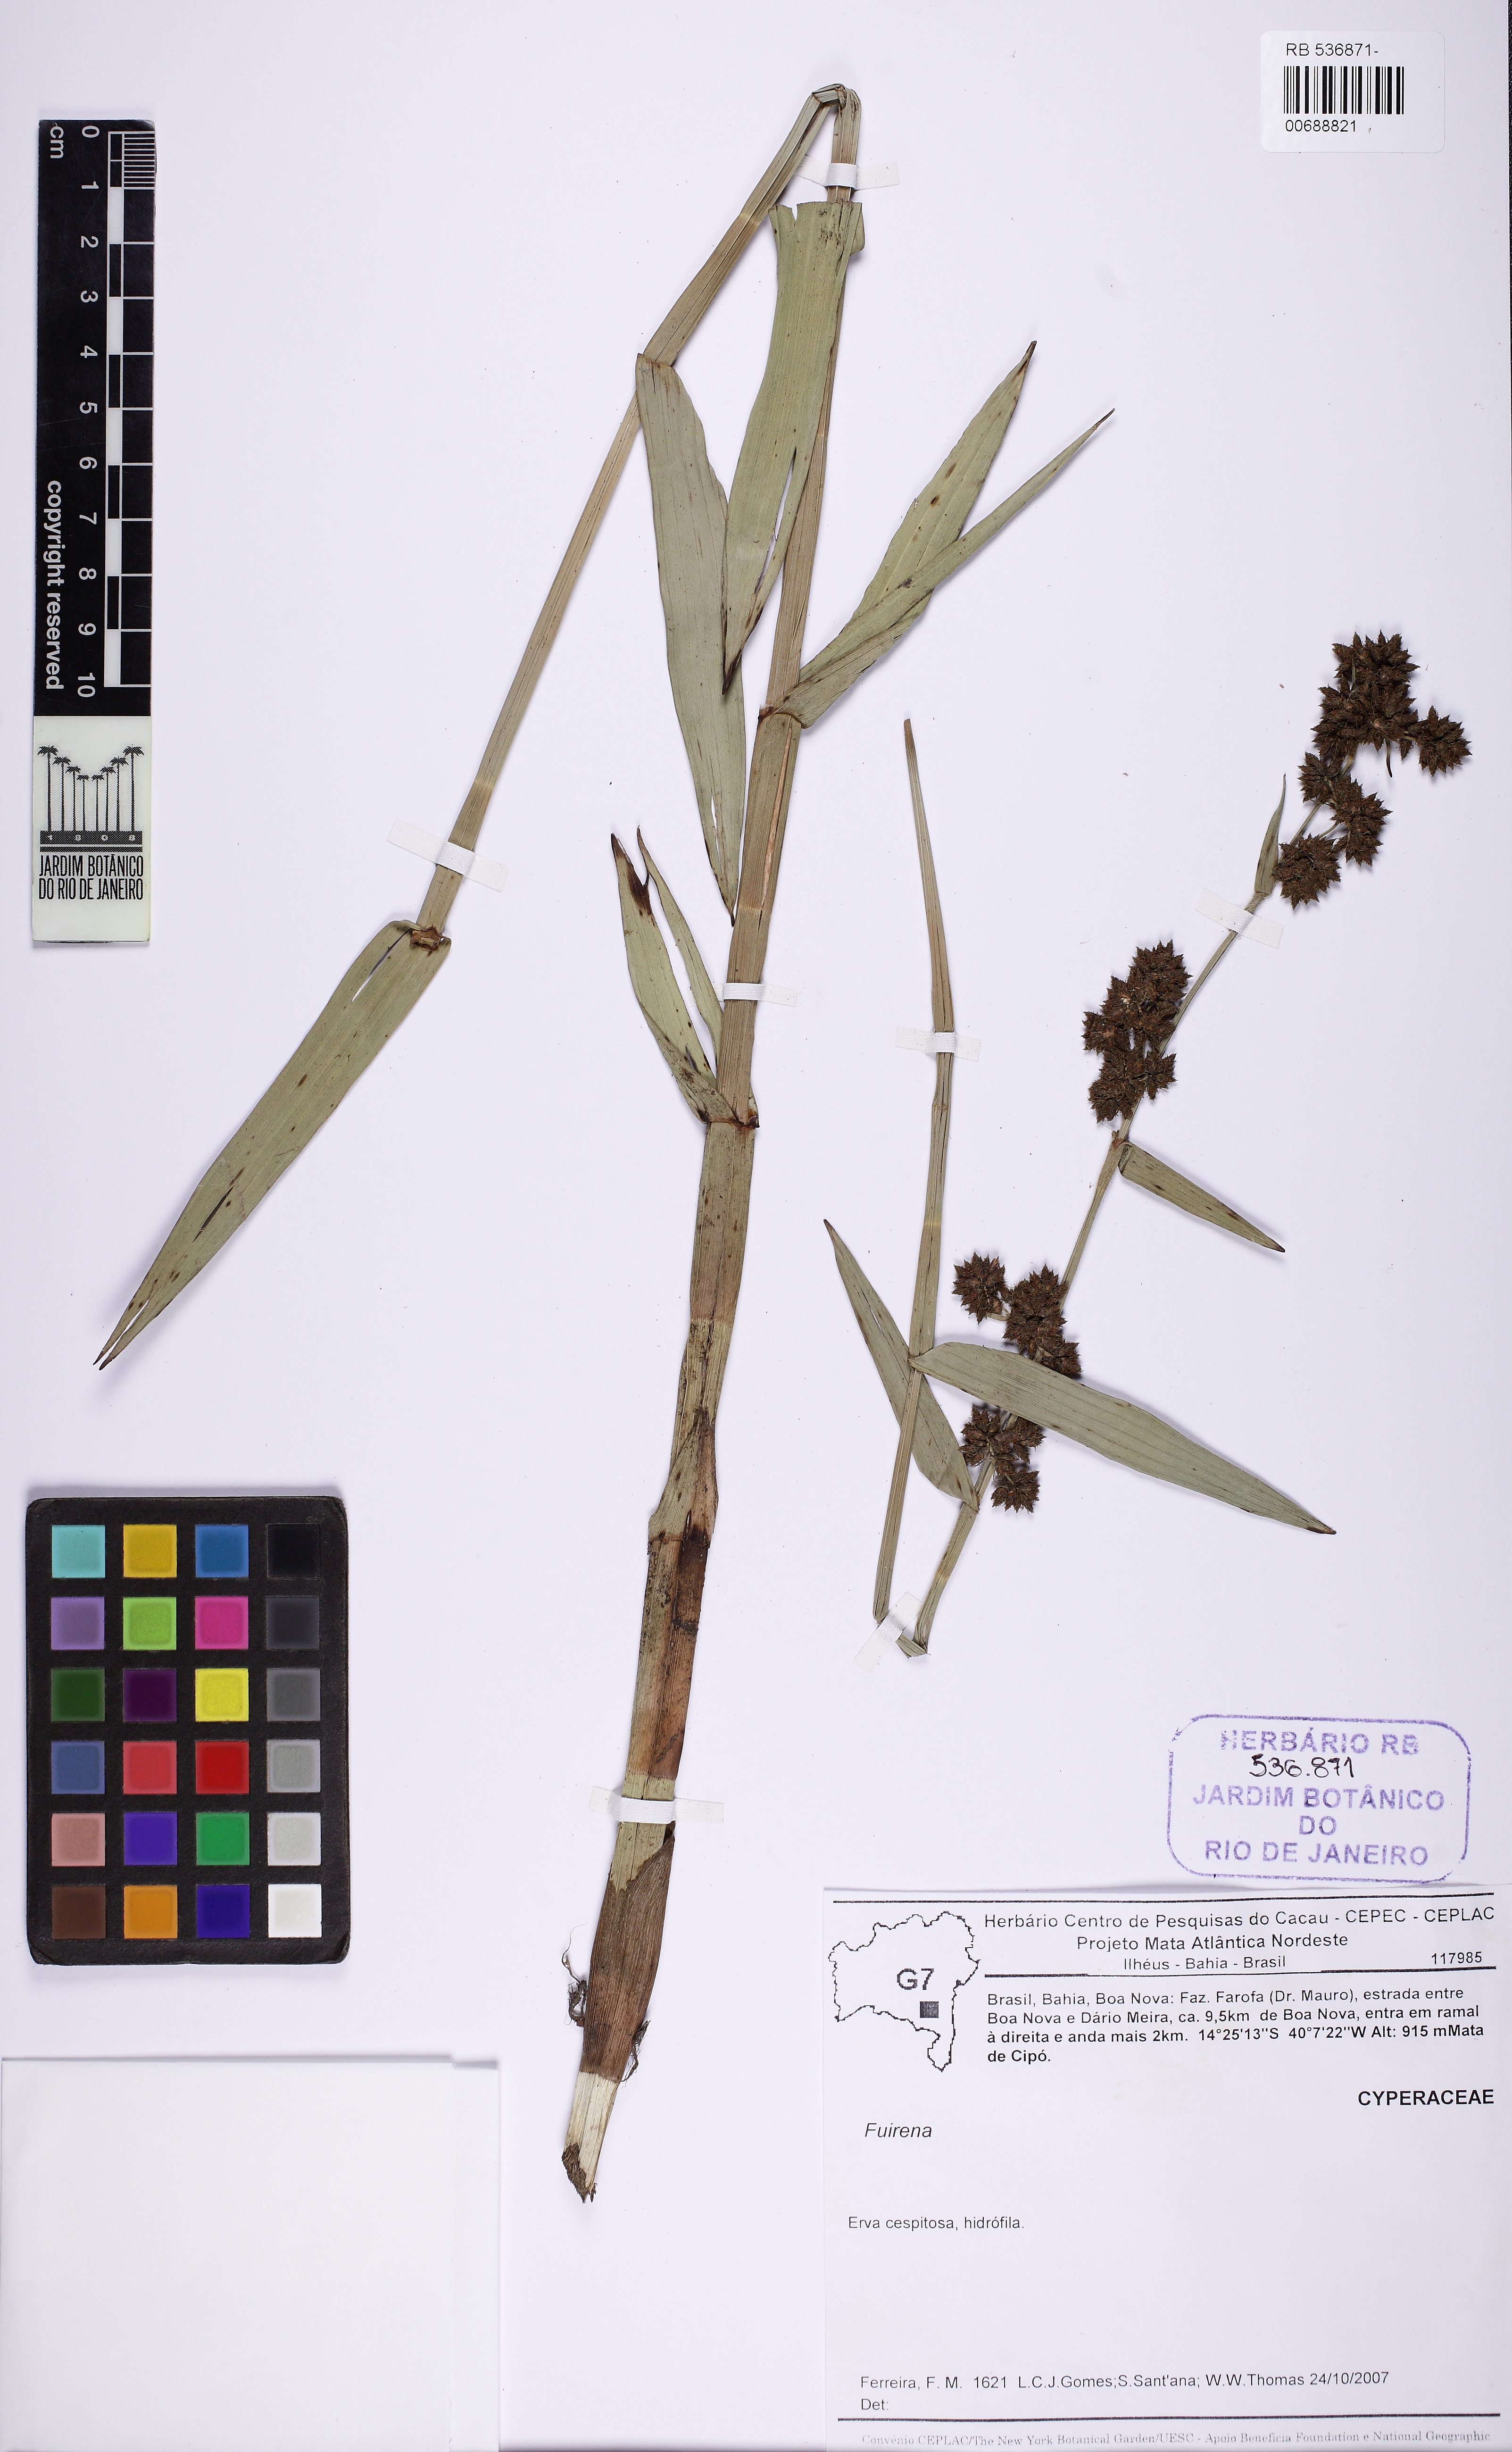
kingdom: Plantae
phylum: Tracheophyta
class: Liliopsida
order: Poales
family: Cyperaceae
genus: Fuirena
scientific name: Fuirena
